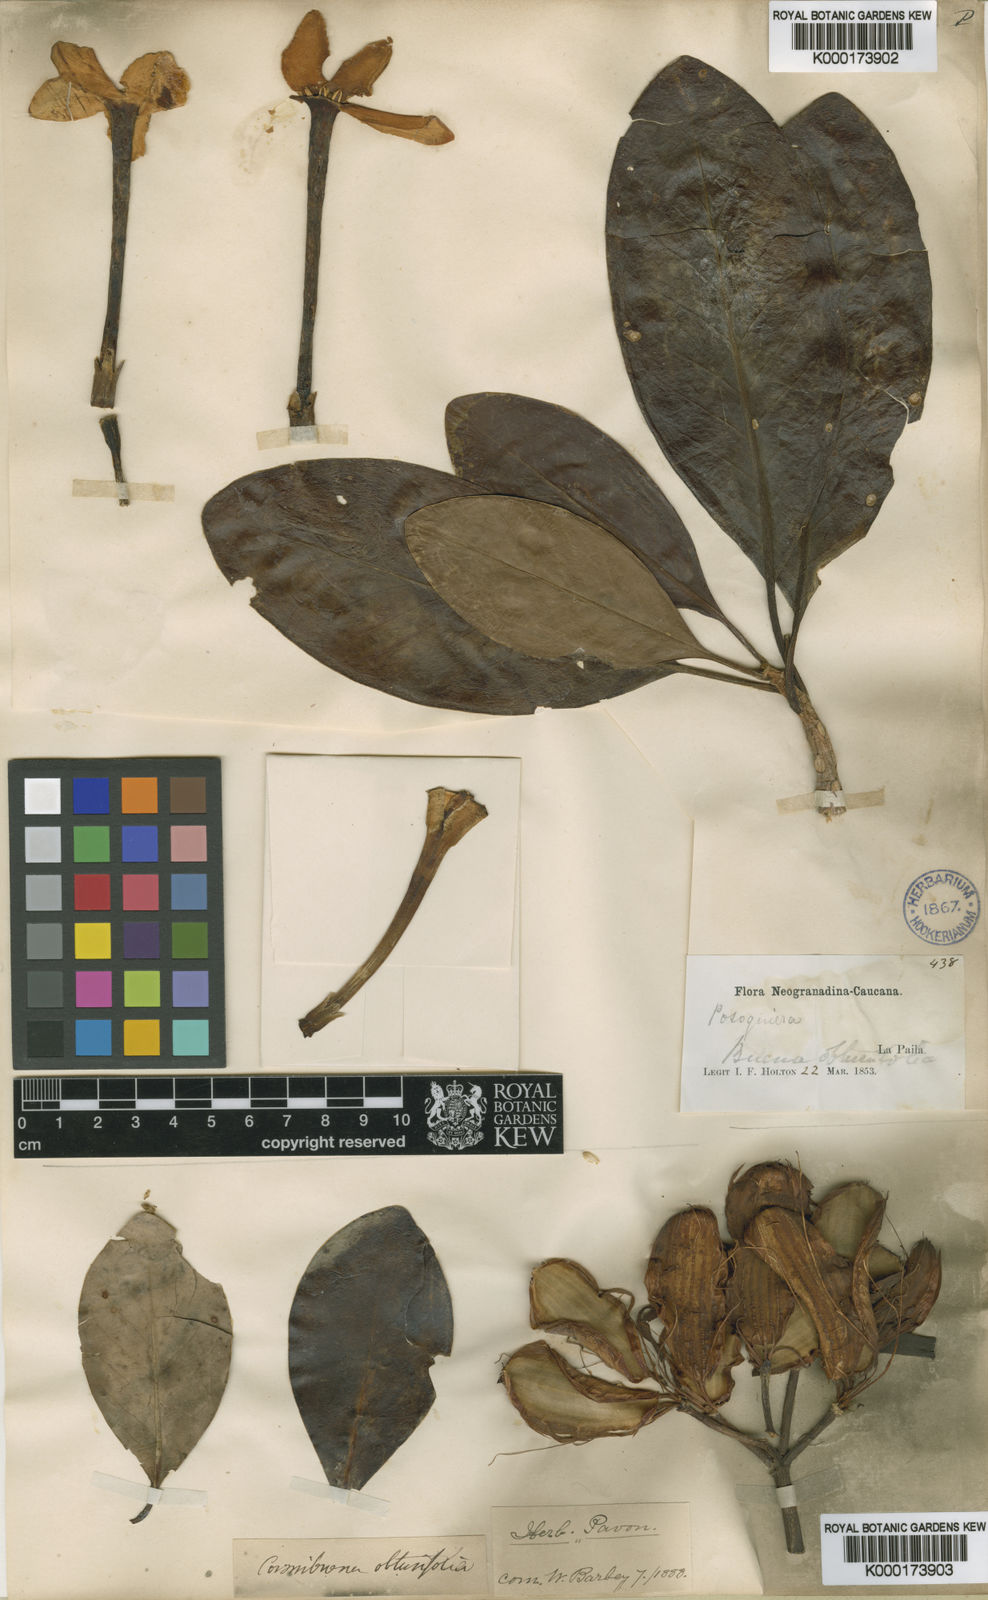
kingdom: Plantae
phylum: Tracheophyta
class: Magnoliopsida
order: Gentianales
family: Rubiaceae
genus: Cosmibuena
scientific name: Cosmibuena grandiflora
